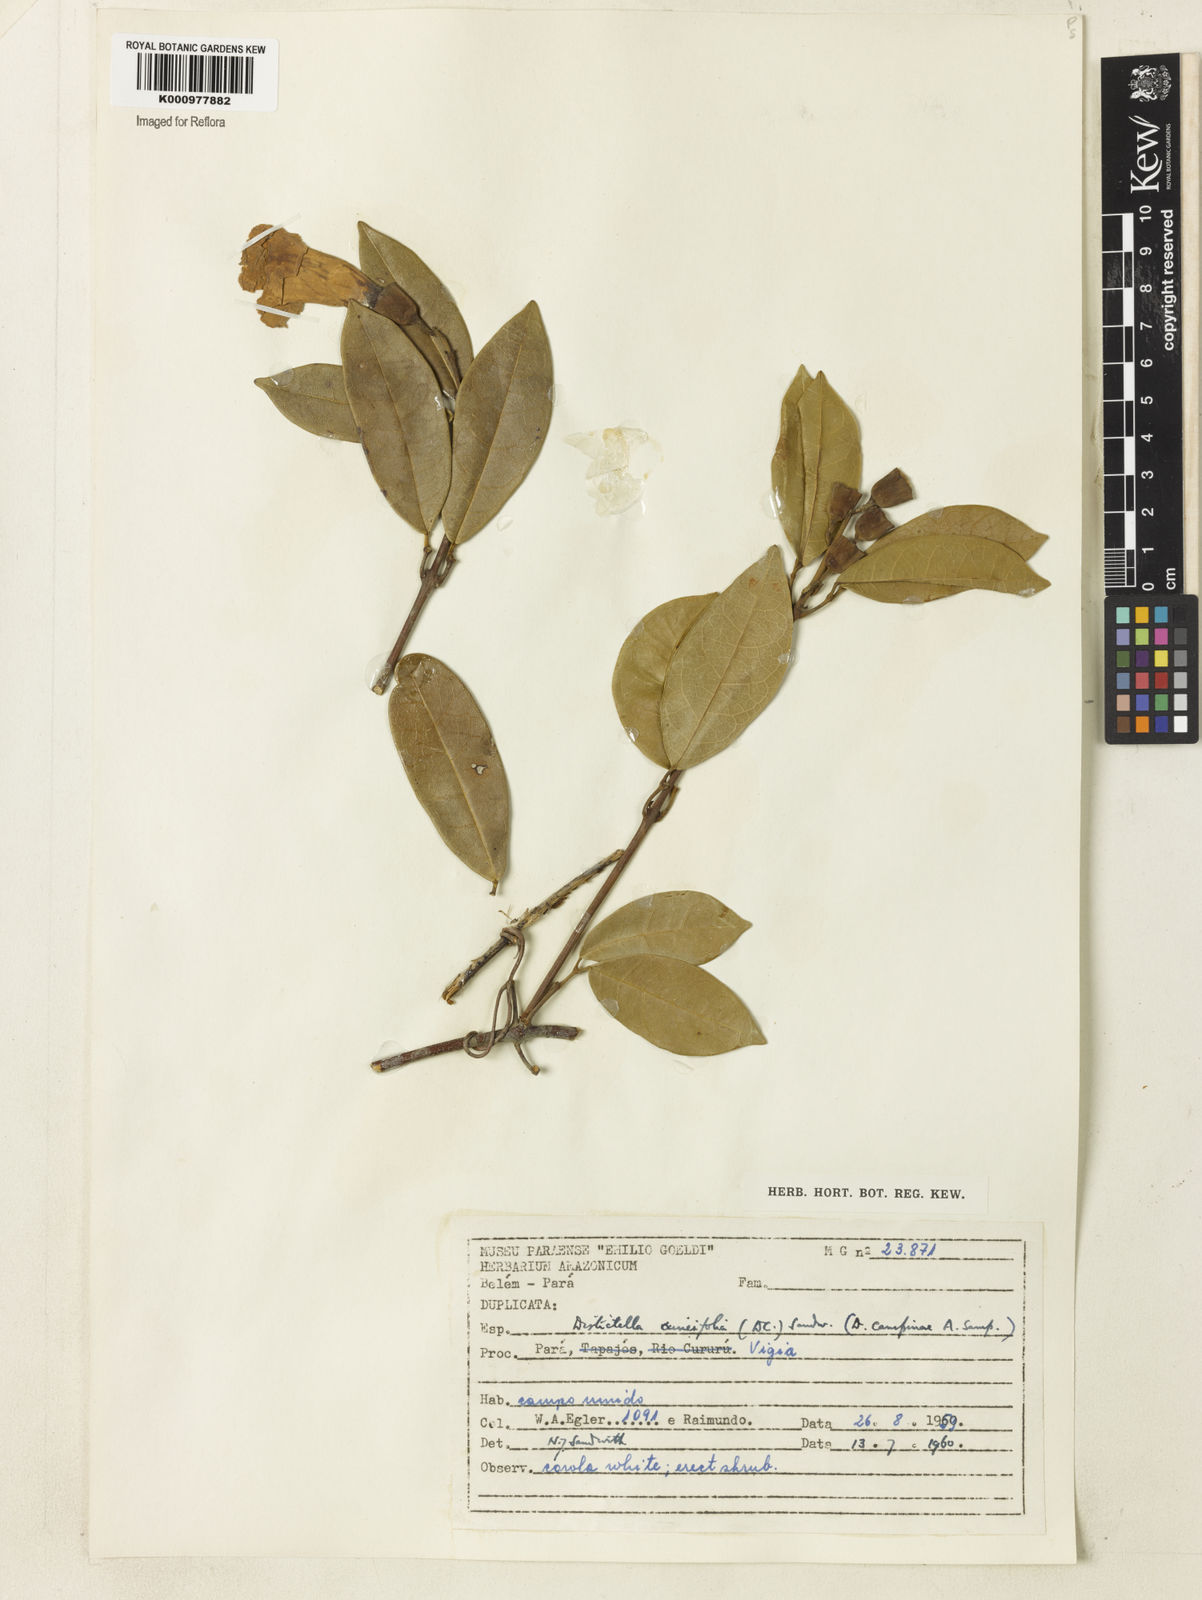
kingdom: Plantae
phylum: Tracheophyta
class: Magnoliopsida
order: Lamiales
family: Bignoniaceae
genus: Amphilophium
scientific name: Amphilophium cuneifolium
